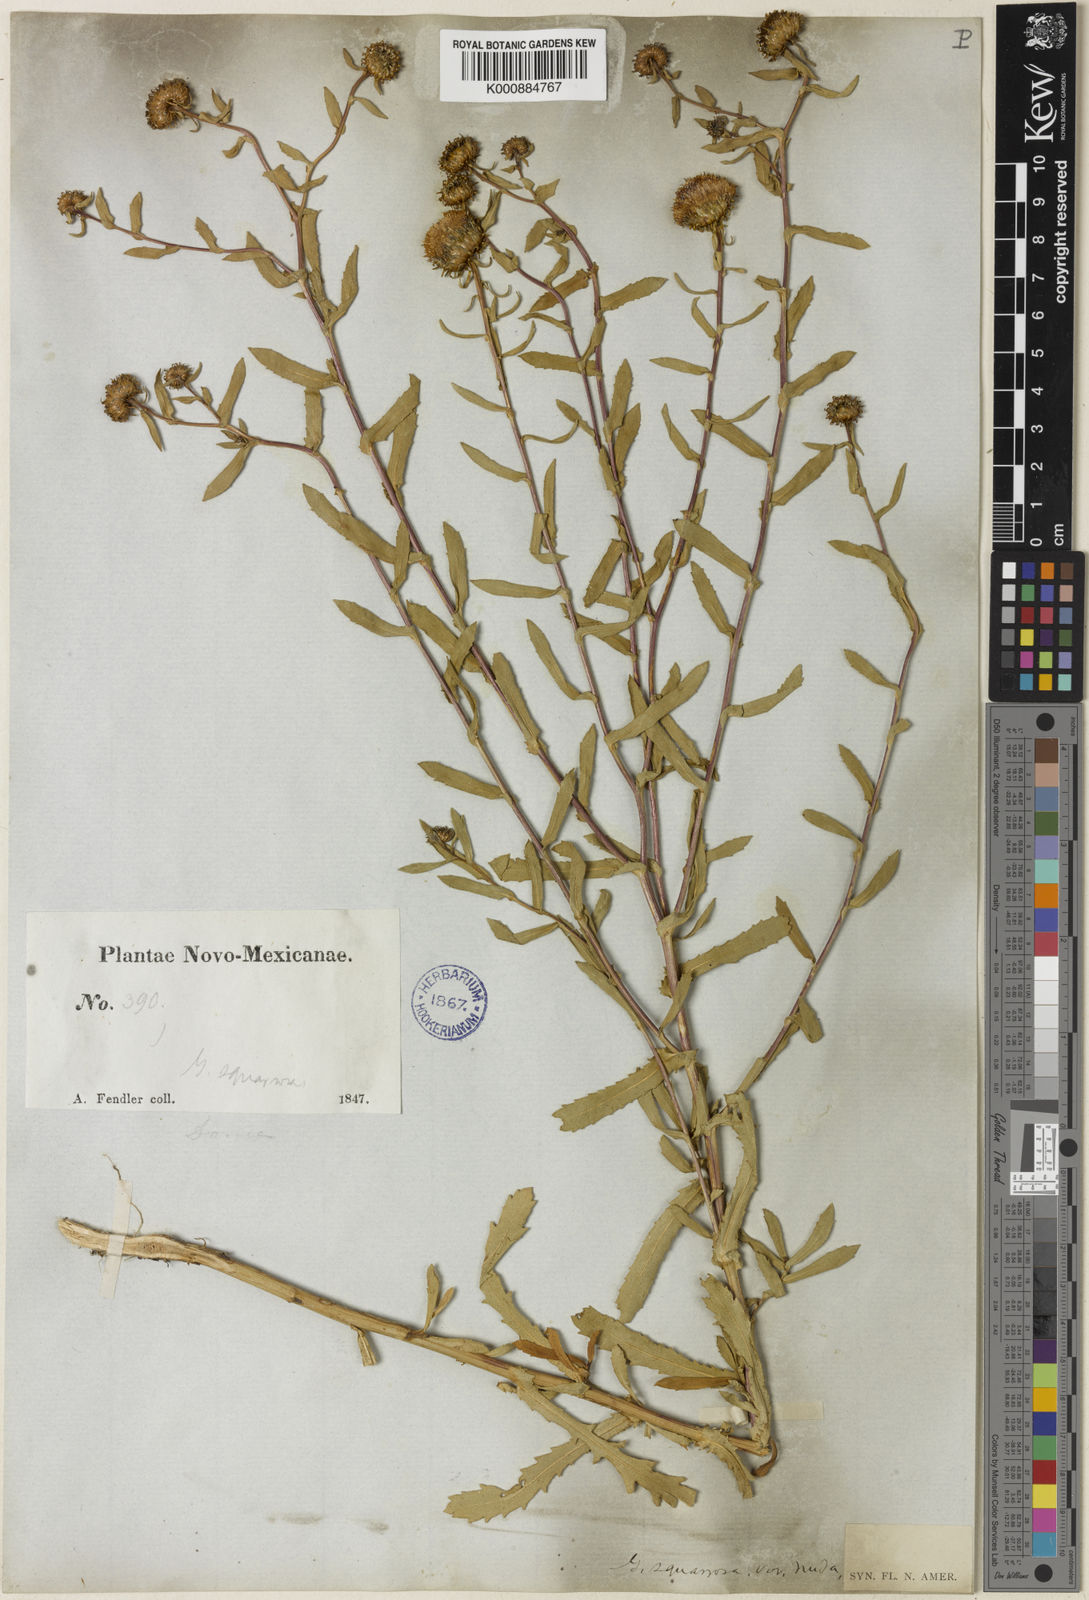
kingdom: Plantae
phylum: Tracheophyta
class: Magnoliopsida
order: Asterales
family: Asteraceae
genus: Grindelia
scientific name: Grindelia nuda
